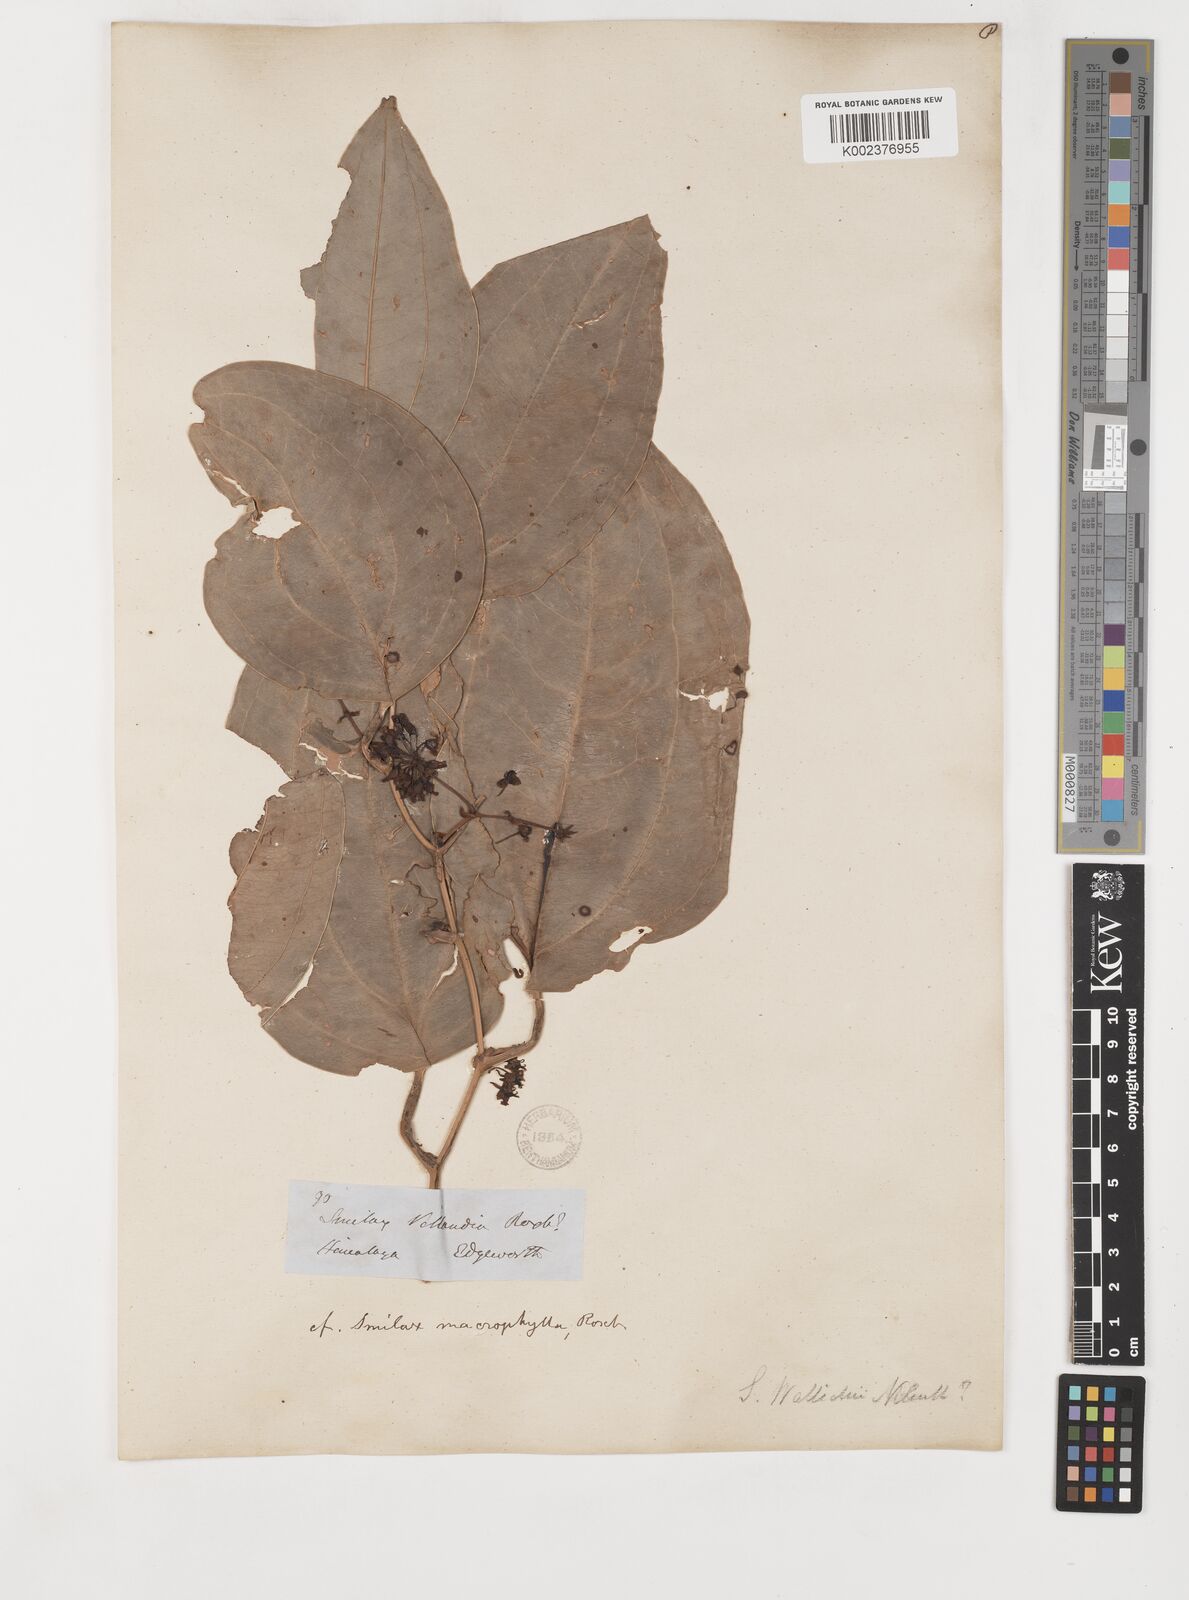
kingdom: Plantae
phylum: Tracheophyta
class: Liliopsida
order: Liliales
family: Smilacaceae
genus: Smilax
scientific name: Smilax wallichii
